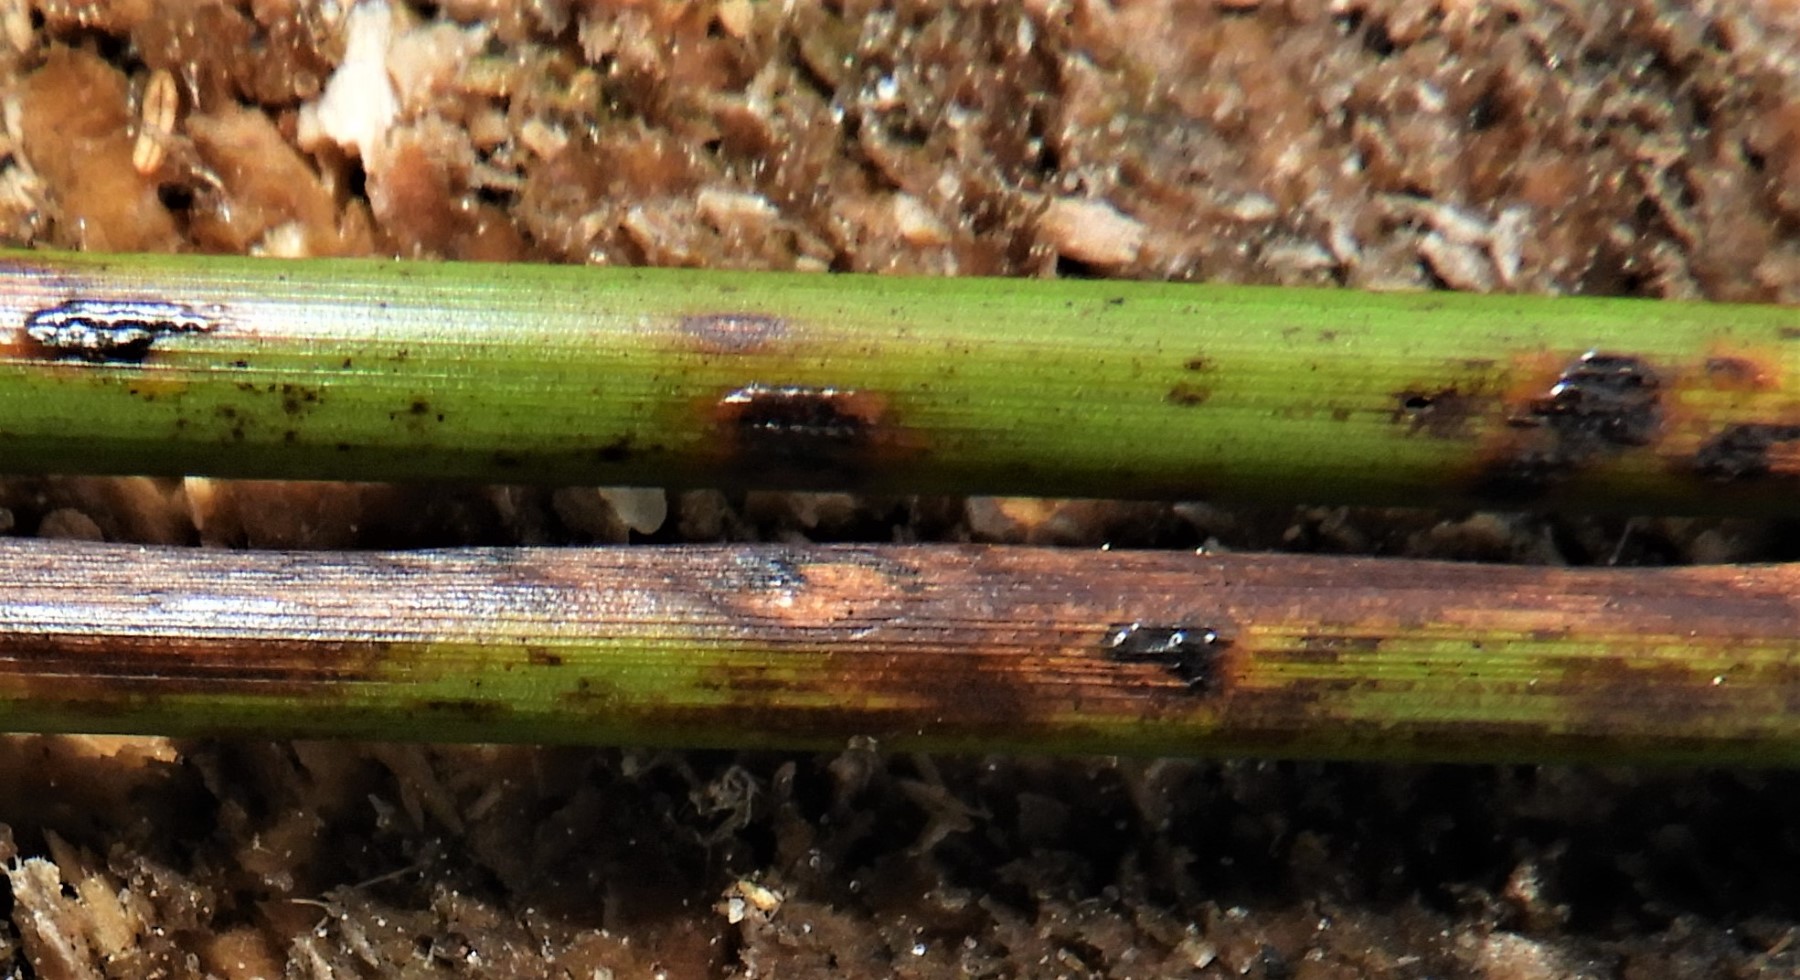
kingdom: Fungi
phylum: Ascomycota
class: Sordariomycetes
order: Phyllachorales
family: Phyllachoraceae
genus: Phyllachora
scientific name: Phyllachora junci
